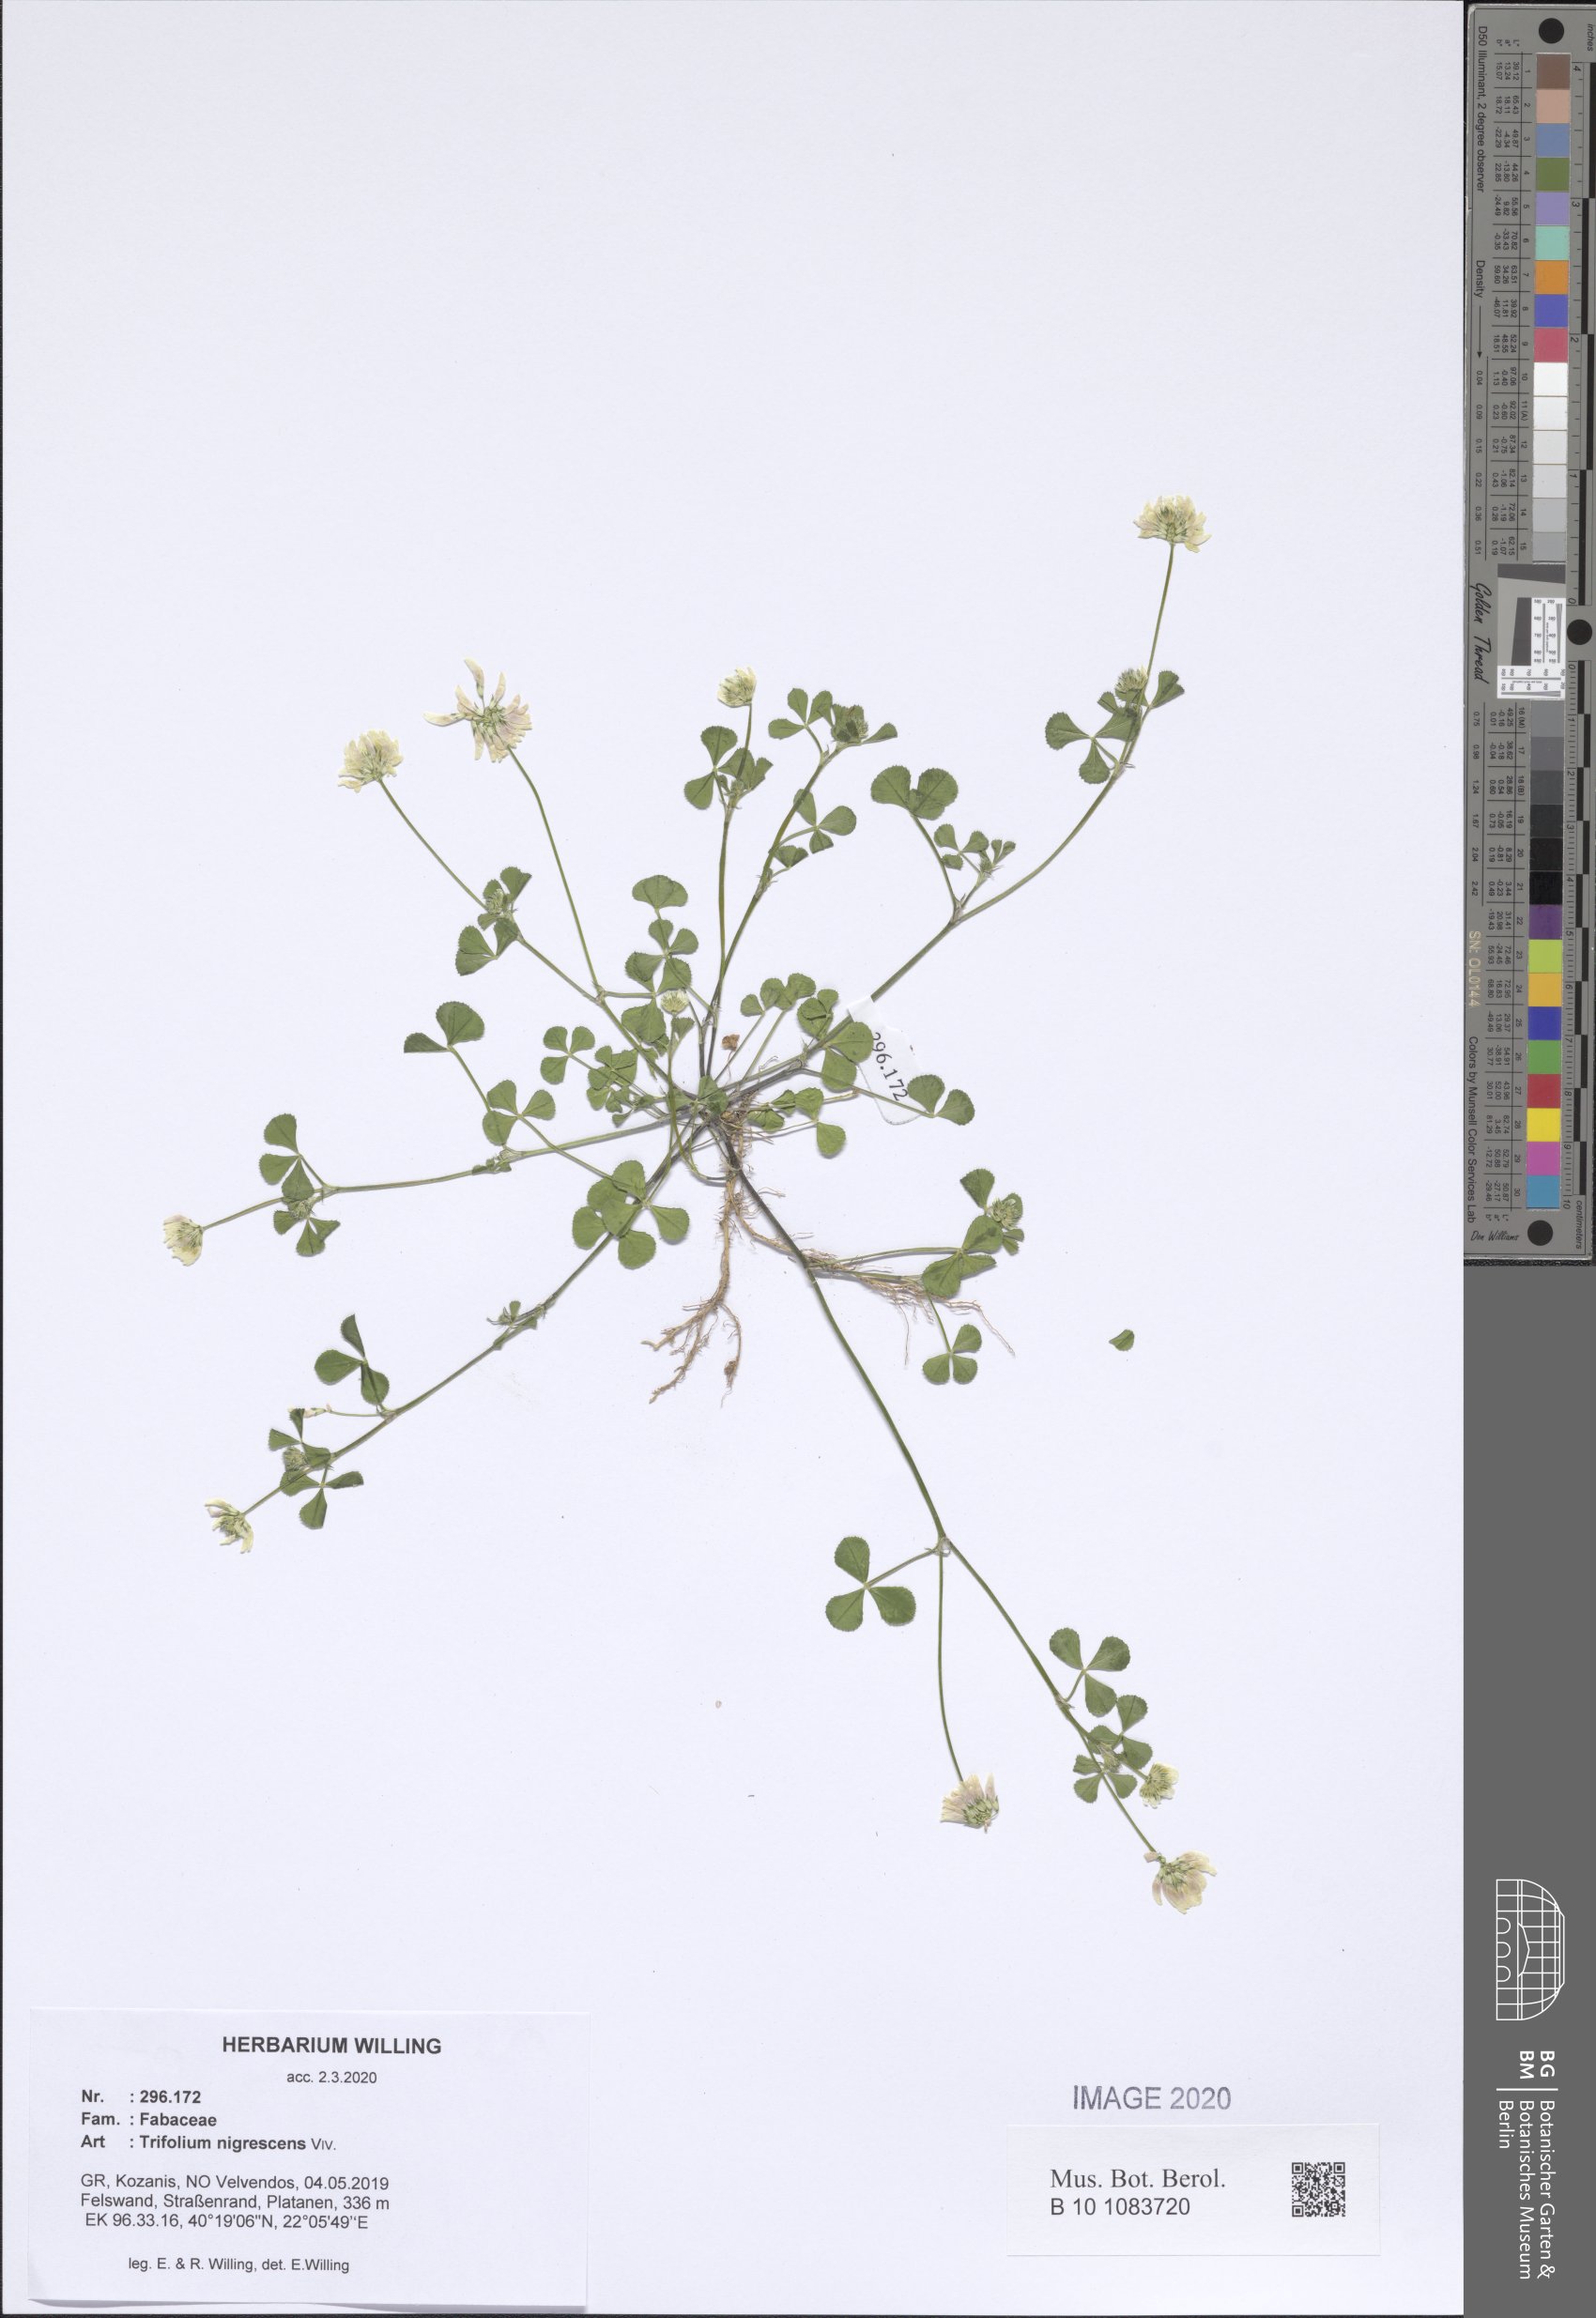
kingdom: Plantae
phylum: Tracheophyta
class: Magnoliopsida
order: Fabales
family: Fabaceae
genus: Trifolium
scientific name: Trifolium nigrescens
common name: Small white clover
